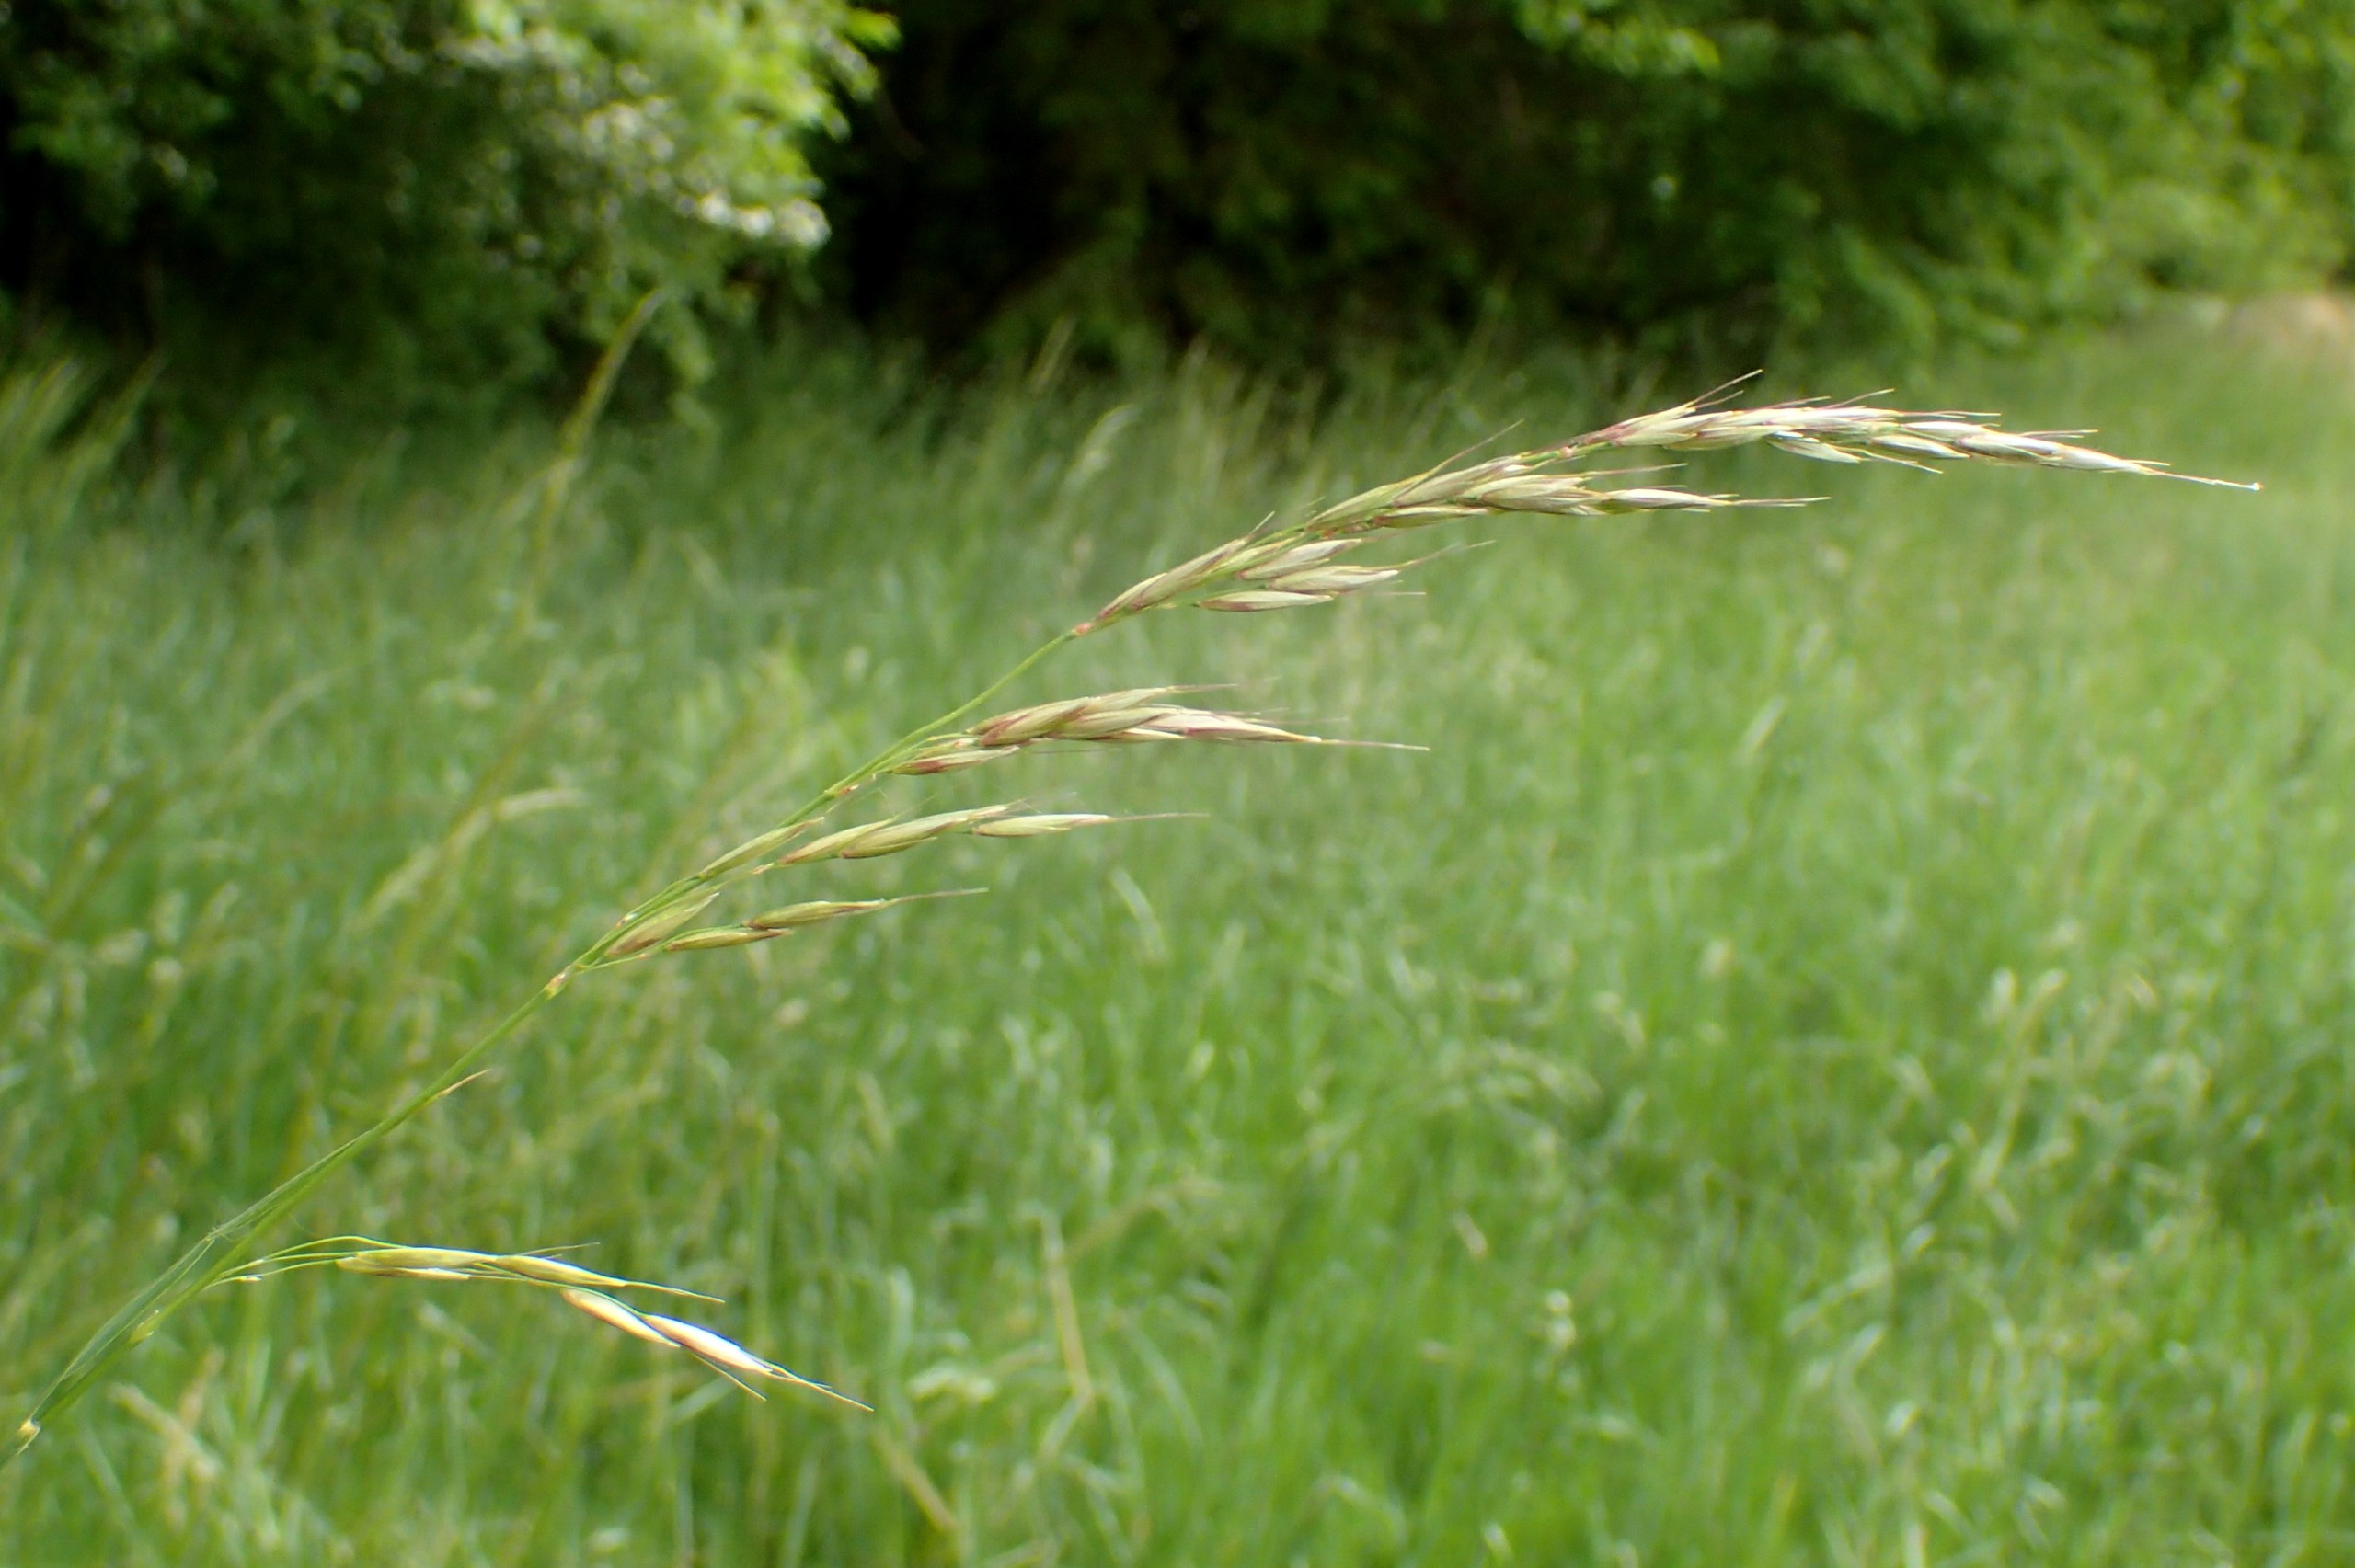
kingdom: Plantae
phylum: Tracheophyta
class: Liliopsida
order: Poales
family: Poaceae
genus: Arrhenatherum
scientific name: Arrhenatherum elatius
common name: Draphavre
